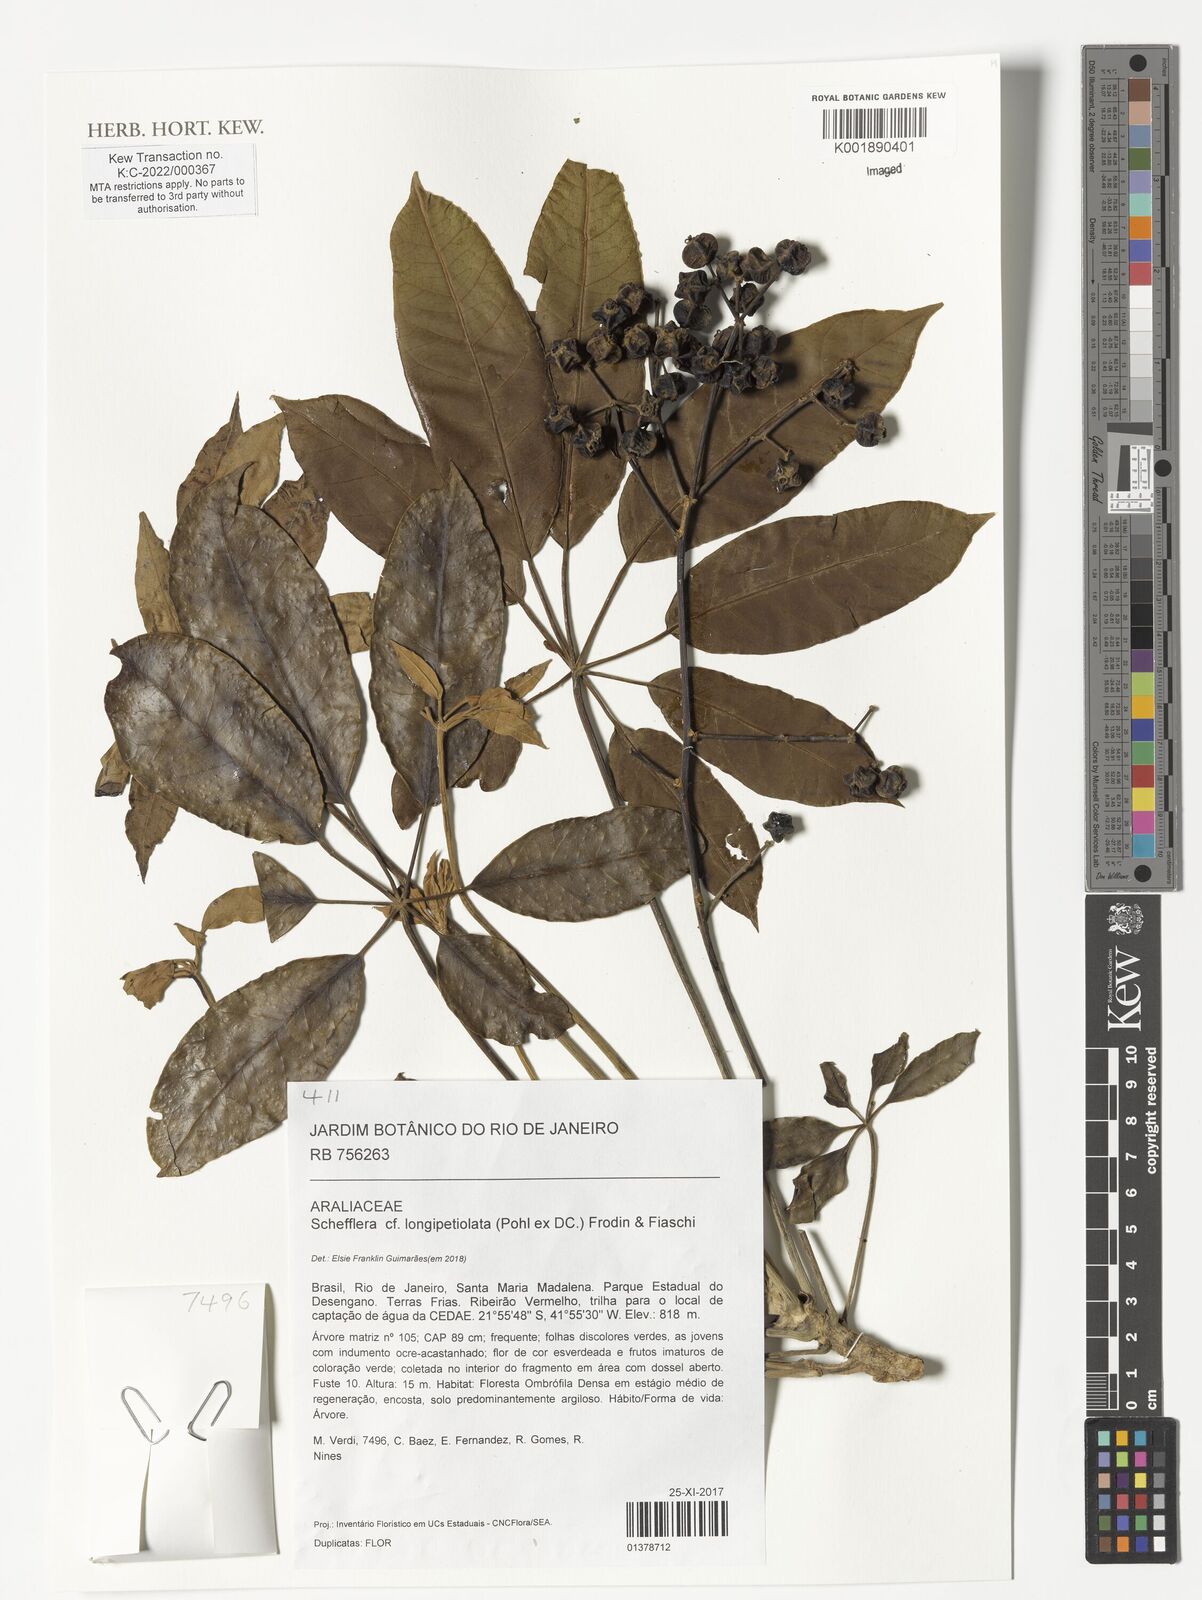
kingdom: Plantae
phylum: Tracheophyta
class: Magnoliopsida
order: Apiales
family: Araliaceae
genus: Didymopanax
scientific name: Didymopanax longepetiolatus
